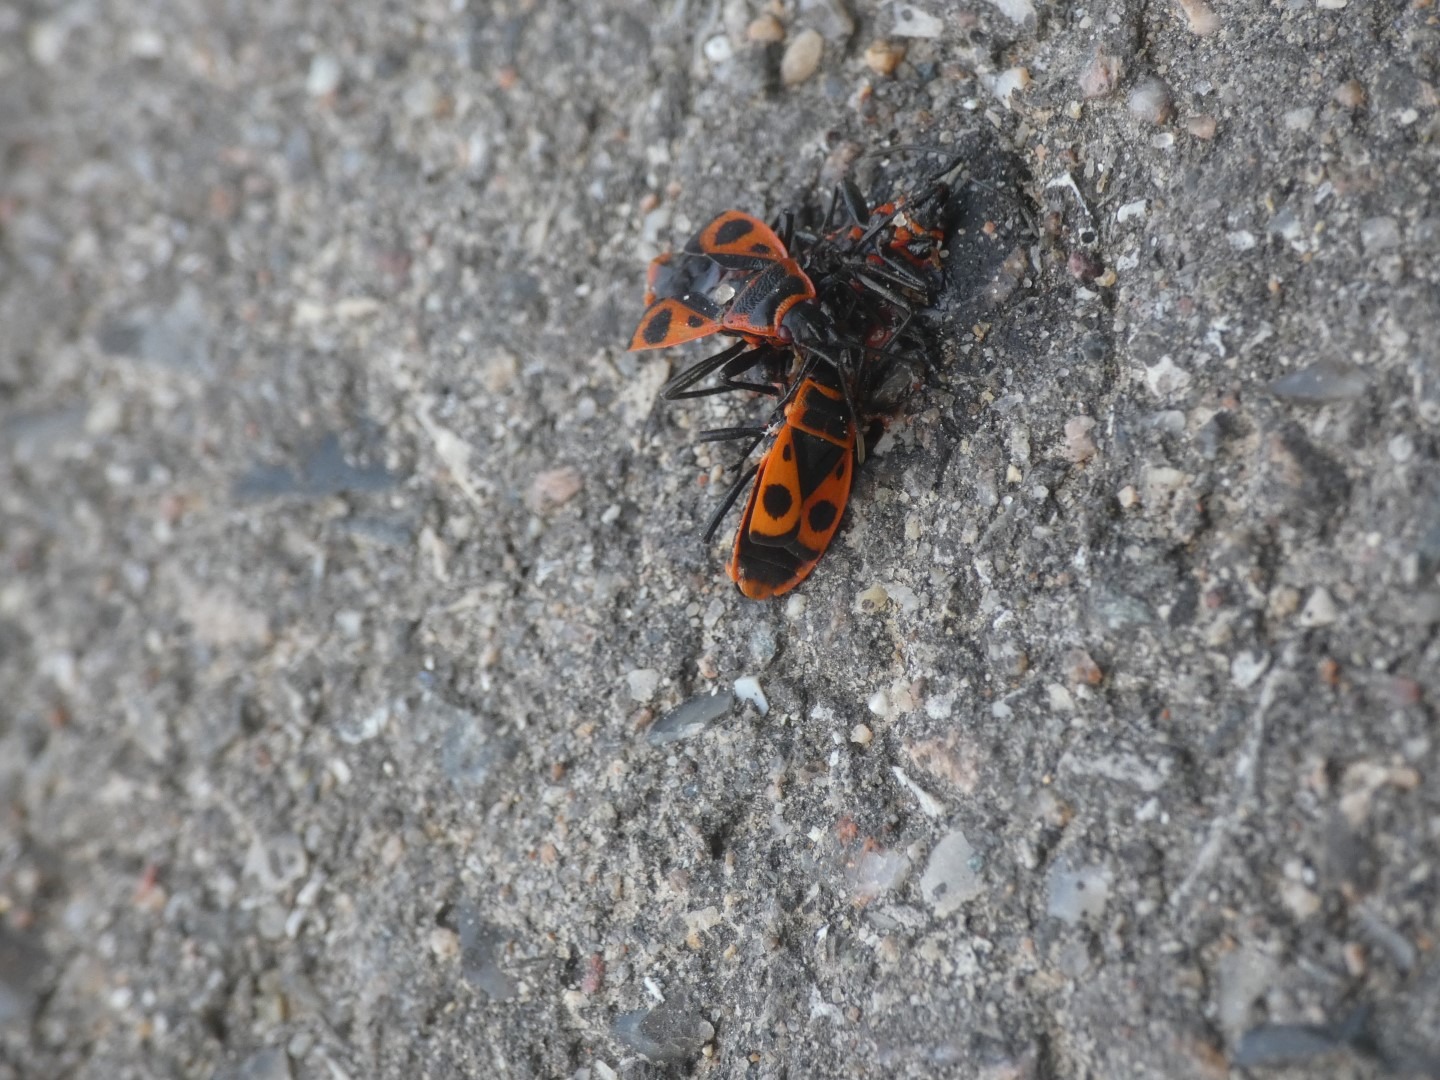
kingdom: Animalia
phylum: Arthropoda
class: Insecta
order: Hemiptera
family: Pyrrhocoridae
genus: Pyrrhocoris
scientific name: Pyrrhocoris apterus
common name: Ildtæge
